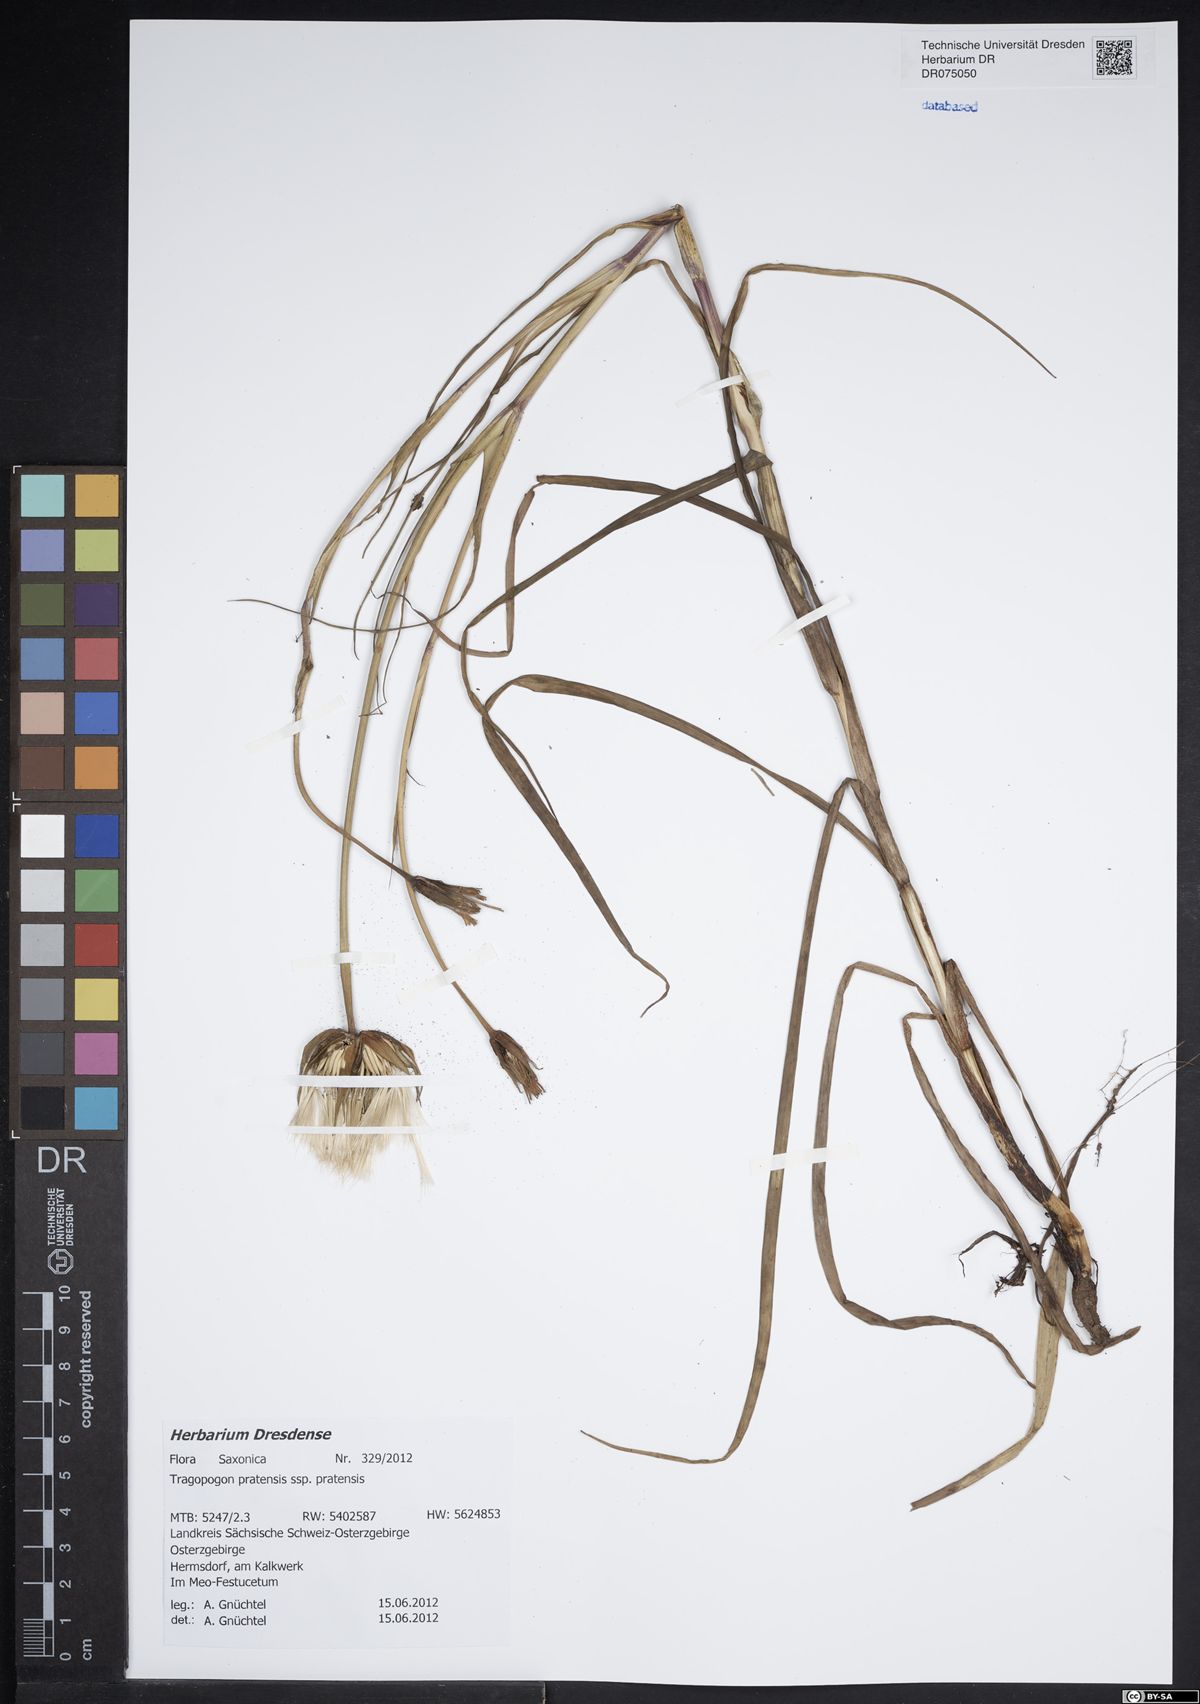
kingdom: Plantae
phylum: Tracheophyta
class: Magnoliopsida
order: Asterales
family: Asteraceae
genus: Tragopogon
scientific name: Tragopogon pratensis
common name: Goat's-beard
